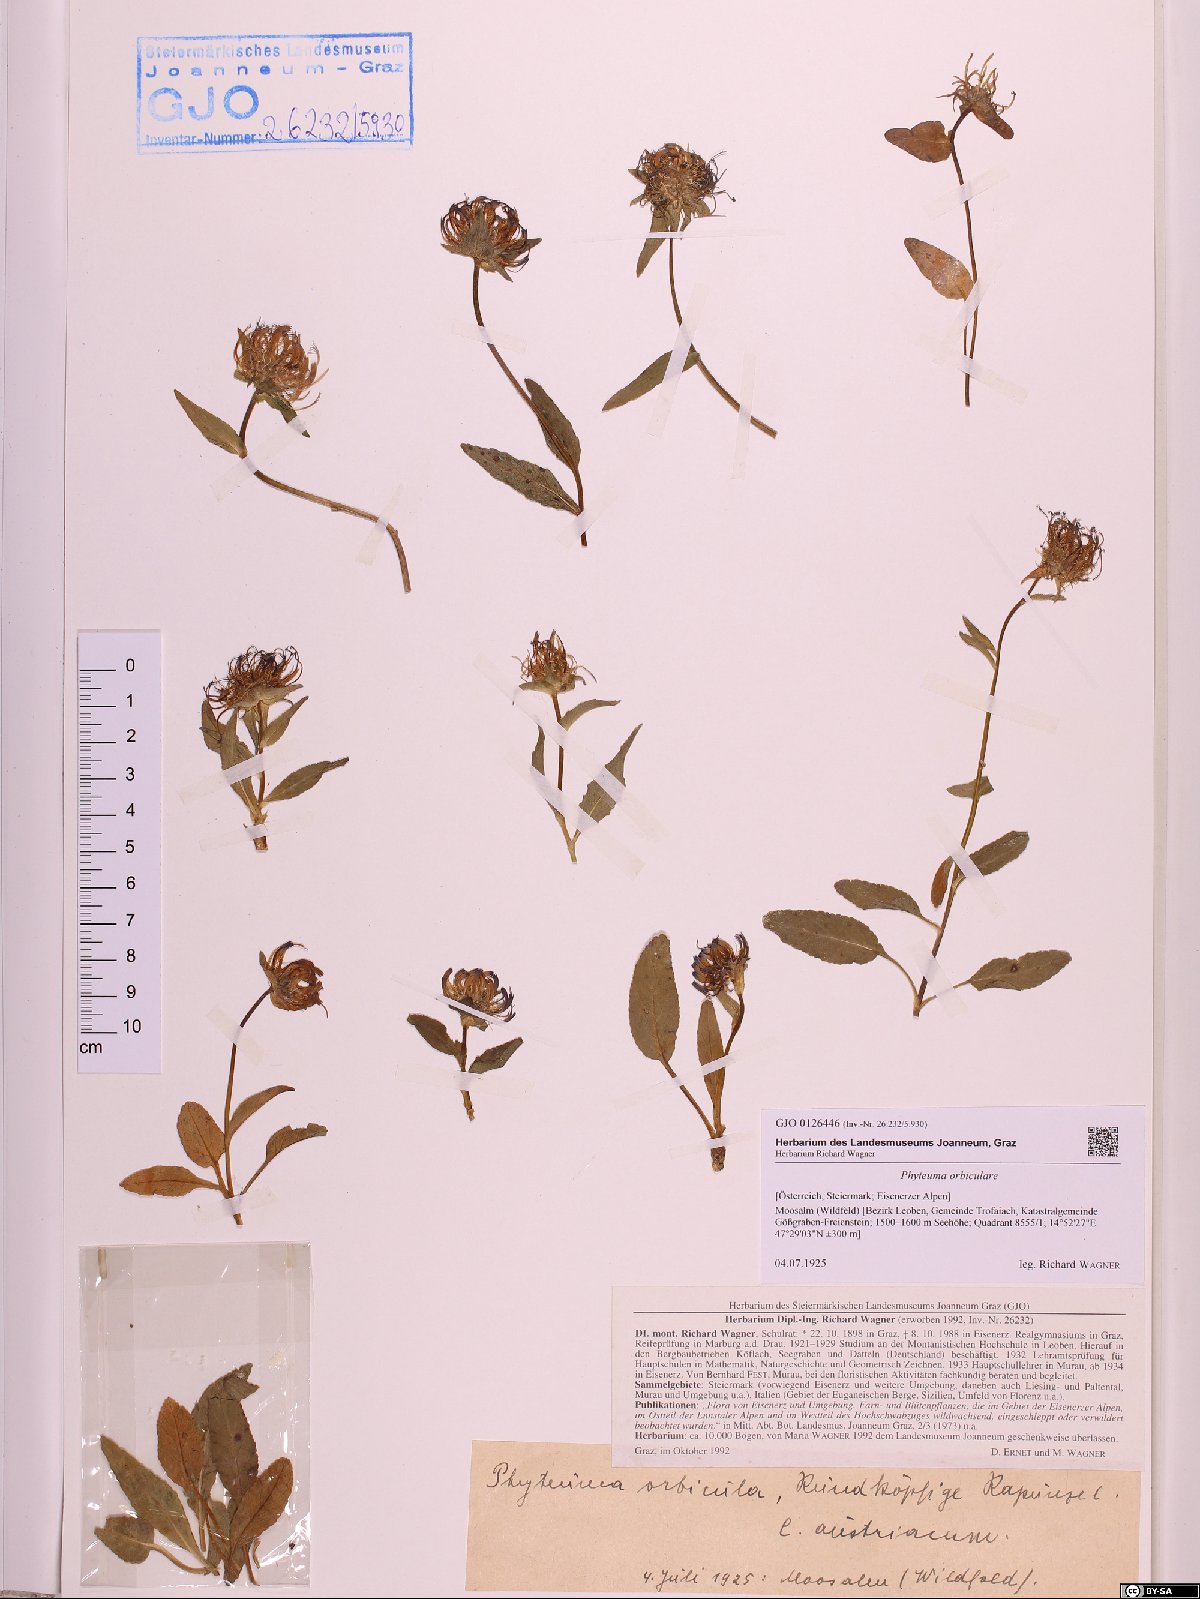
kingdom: Plantae
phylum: Tracheophyta
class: Magnoliopsida
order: Asterales
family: Campanulaceae
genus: Phyteuma
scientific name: Phyteuma orbiculare
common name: Round-headed rampion
